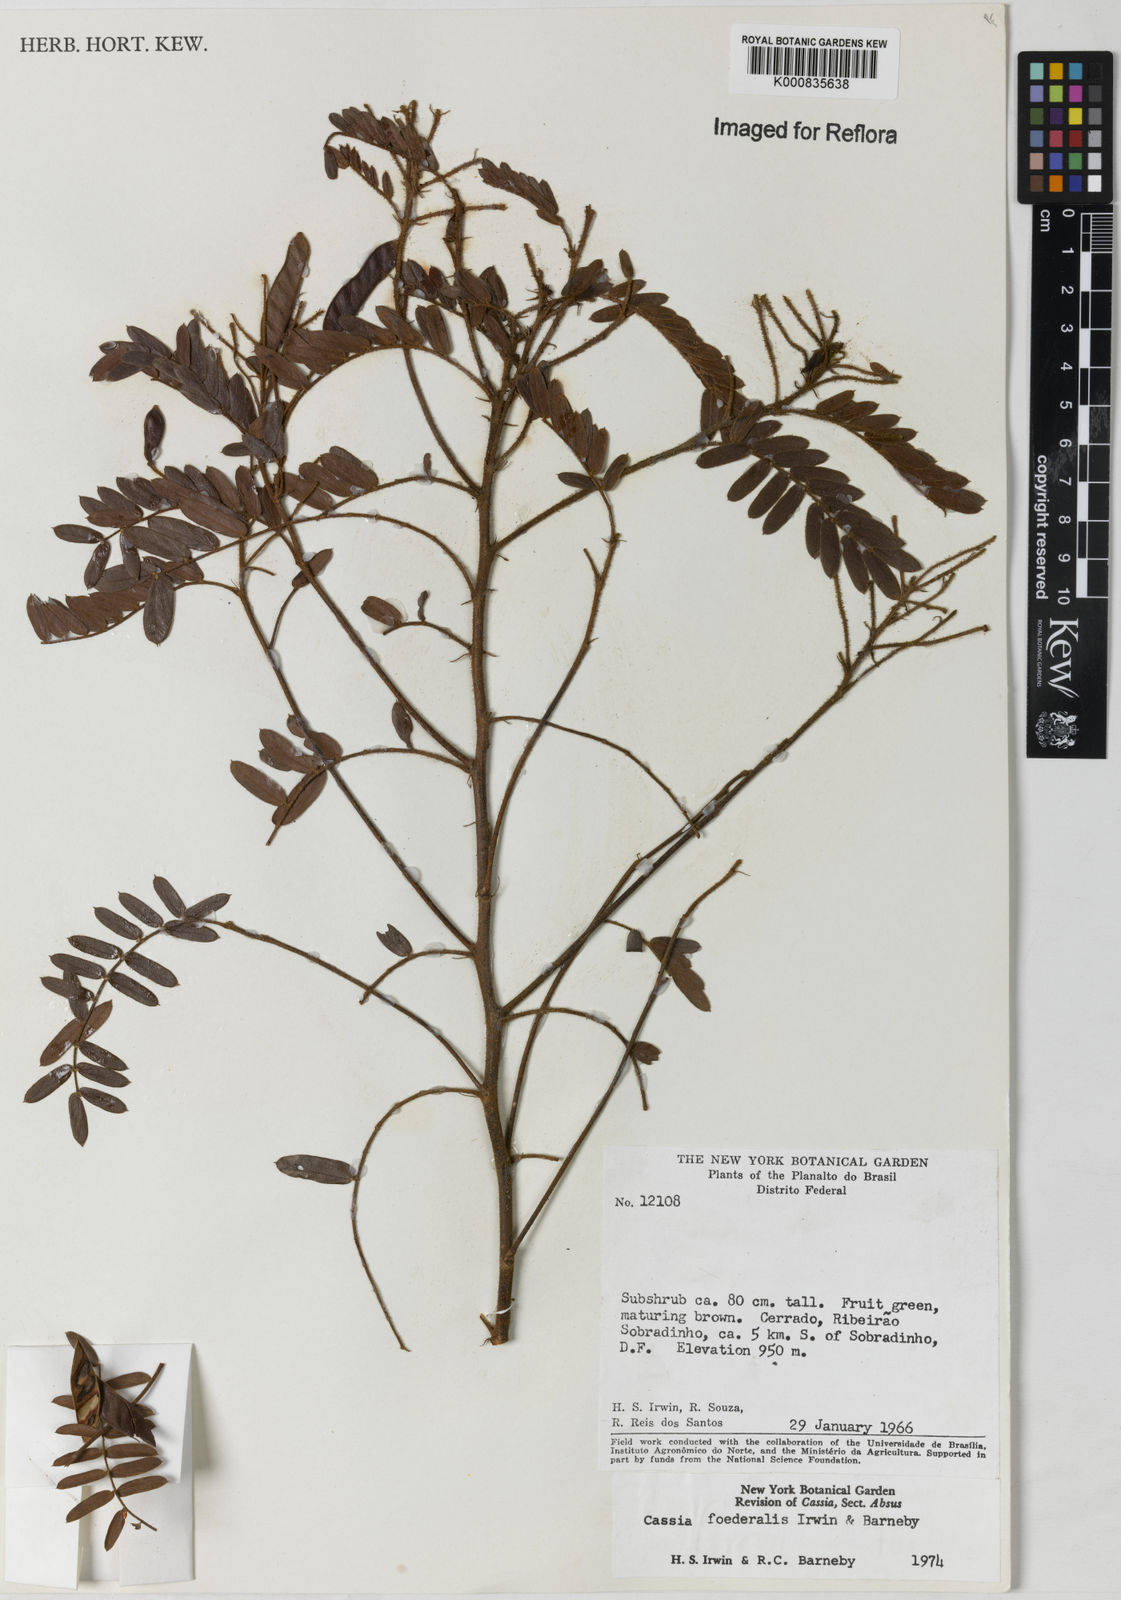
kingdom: Plantae
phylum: Tracheophyta
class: Magnoliopsida
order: Fabales
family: Fabaceae
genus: Chamaecrista
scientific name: Chamaecrista foederalis
